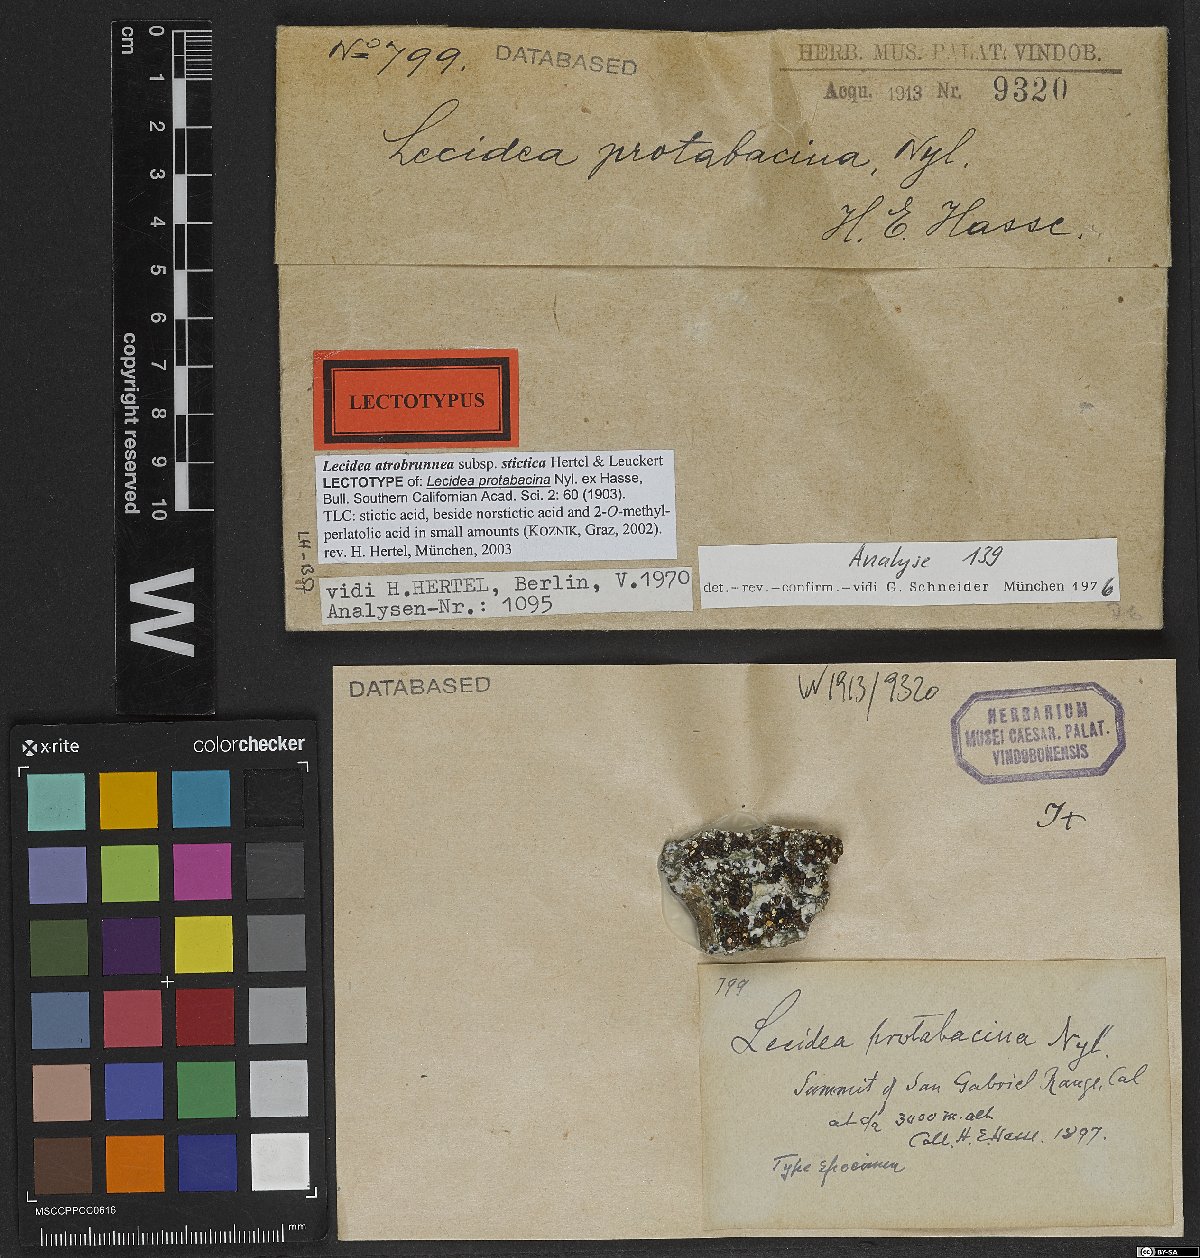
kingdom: Fungi
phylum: Ascomycota
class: Lecanoromycetes
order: Lecideales
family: Lecideaceae
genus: Lecidea
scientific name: Lecidea protabacina
